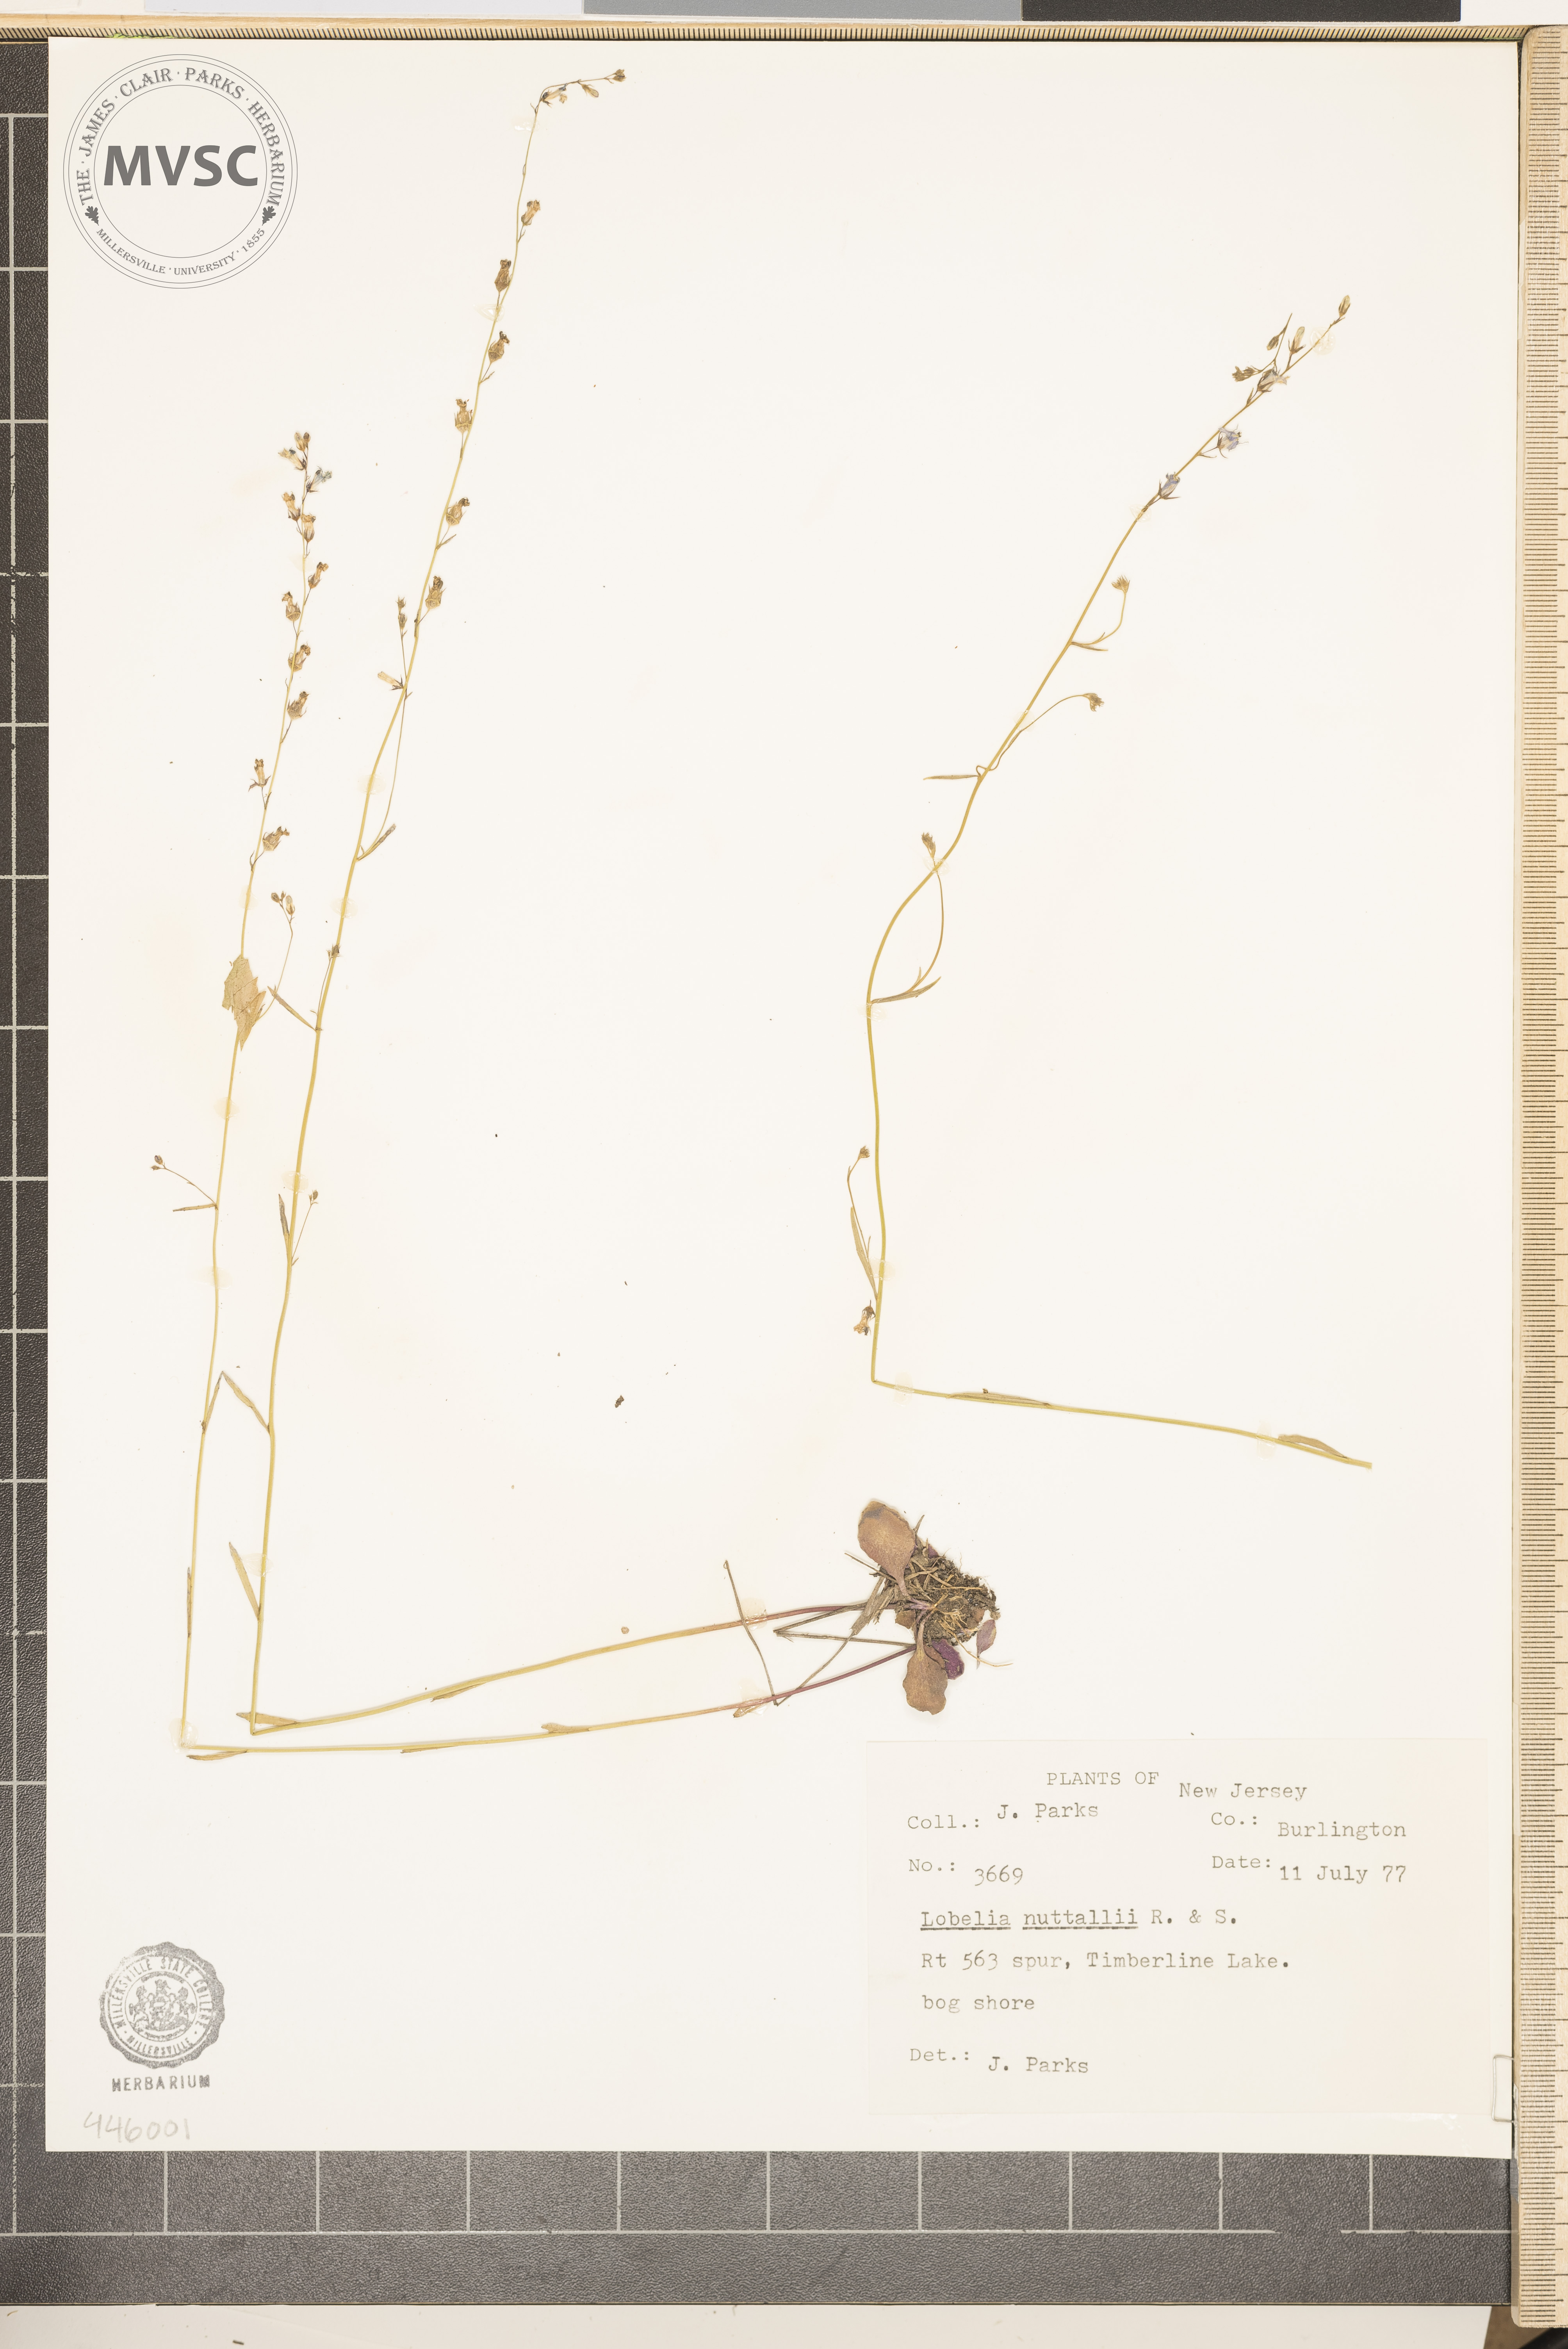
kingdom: Plantae
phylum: Tracheophyta
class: Magnoliopsida
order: Asterales
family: Campanulaceae
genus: Lobelia
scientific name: Lobelia nuttallii
